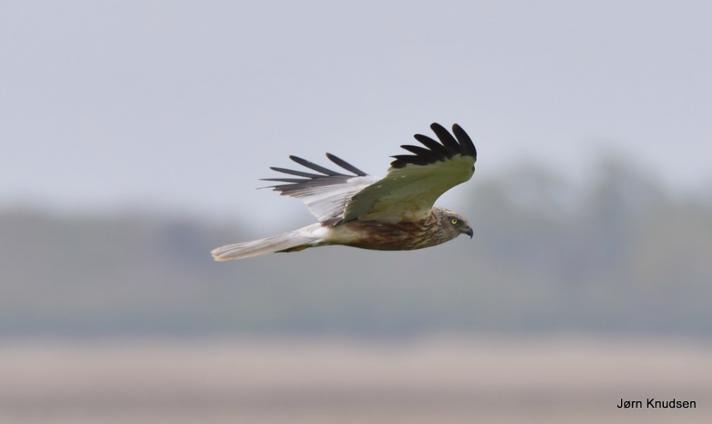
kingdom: Animalia
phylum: Chordata
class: Aves
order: Accipitriformes
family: Accipitridae
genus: Circus
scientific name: Circus aeruginosus
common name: Rørhøg
